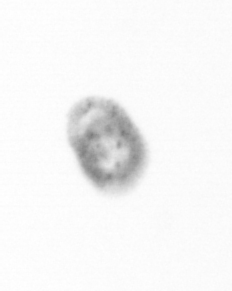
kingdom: Chromista
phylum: Ochrophyta
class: Bacillariophyceae
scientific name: Bacillariophyceae
